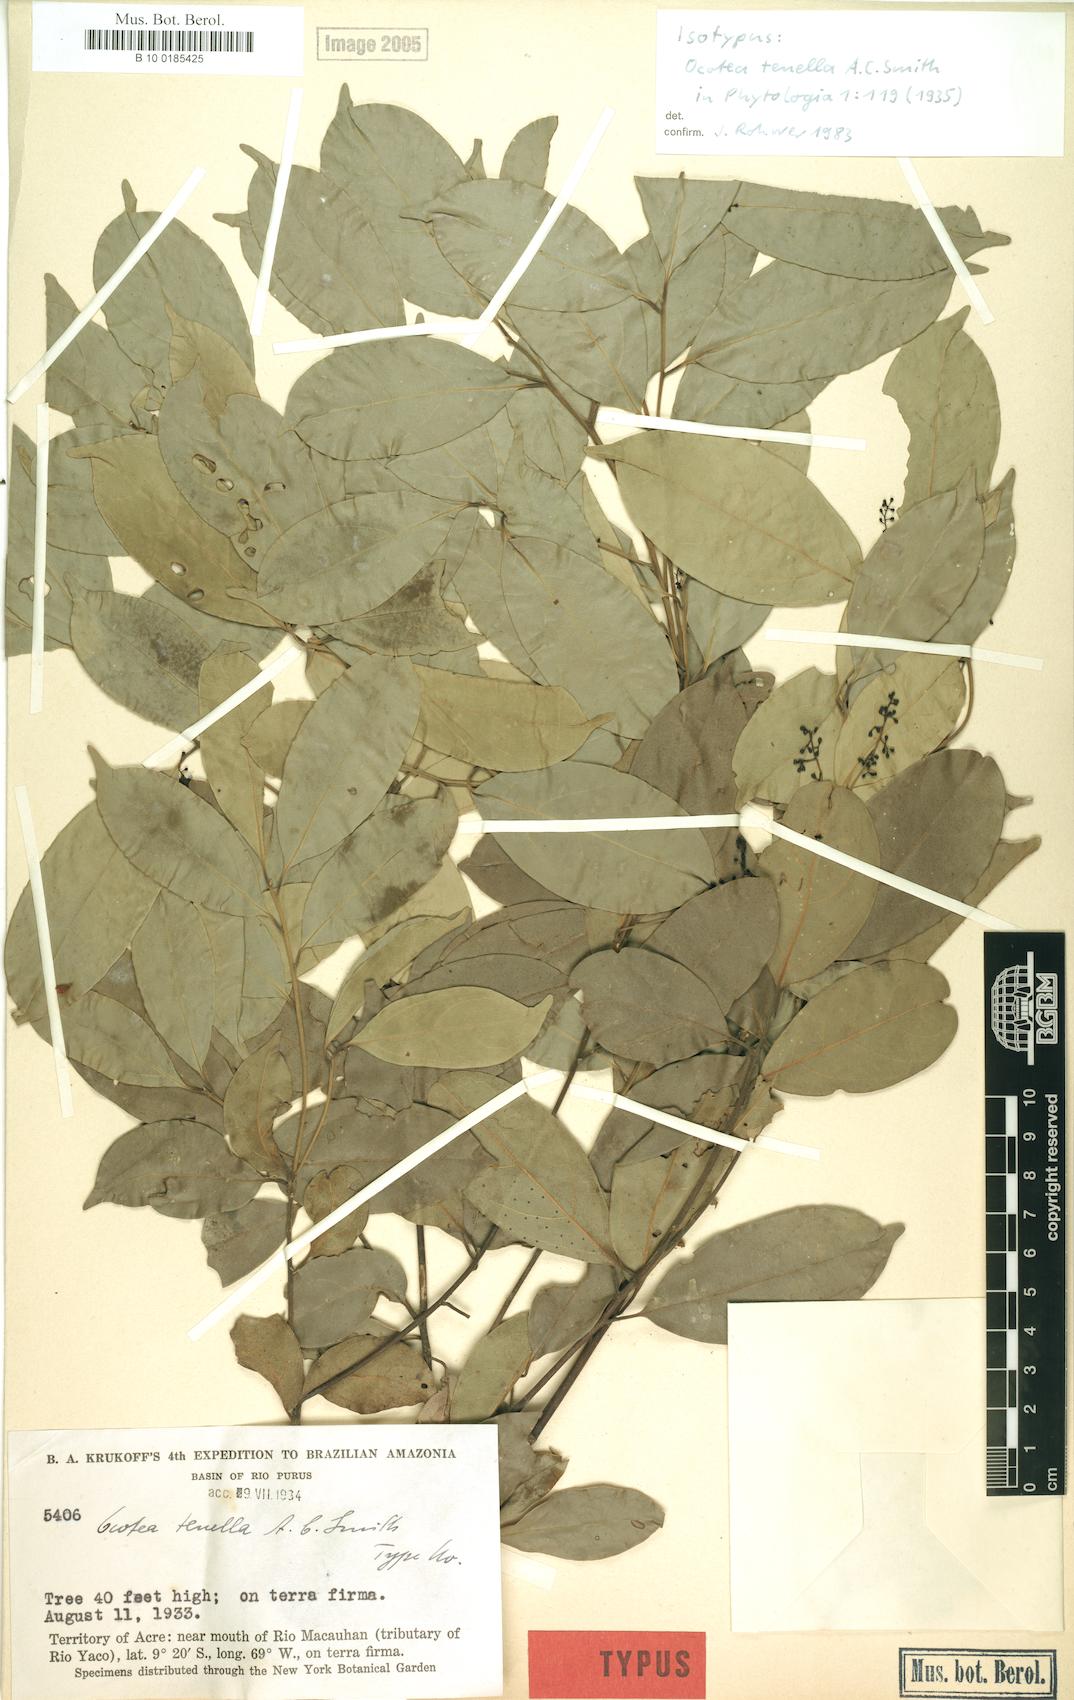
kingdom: Plantae
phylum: Tracheophyta
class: Magnoliopsida
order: Laurales
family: Lauraceae
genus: Ocotea
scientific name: Ocotea tenella
